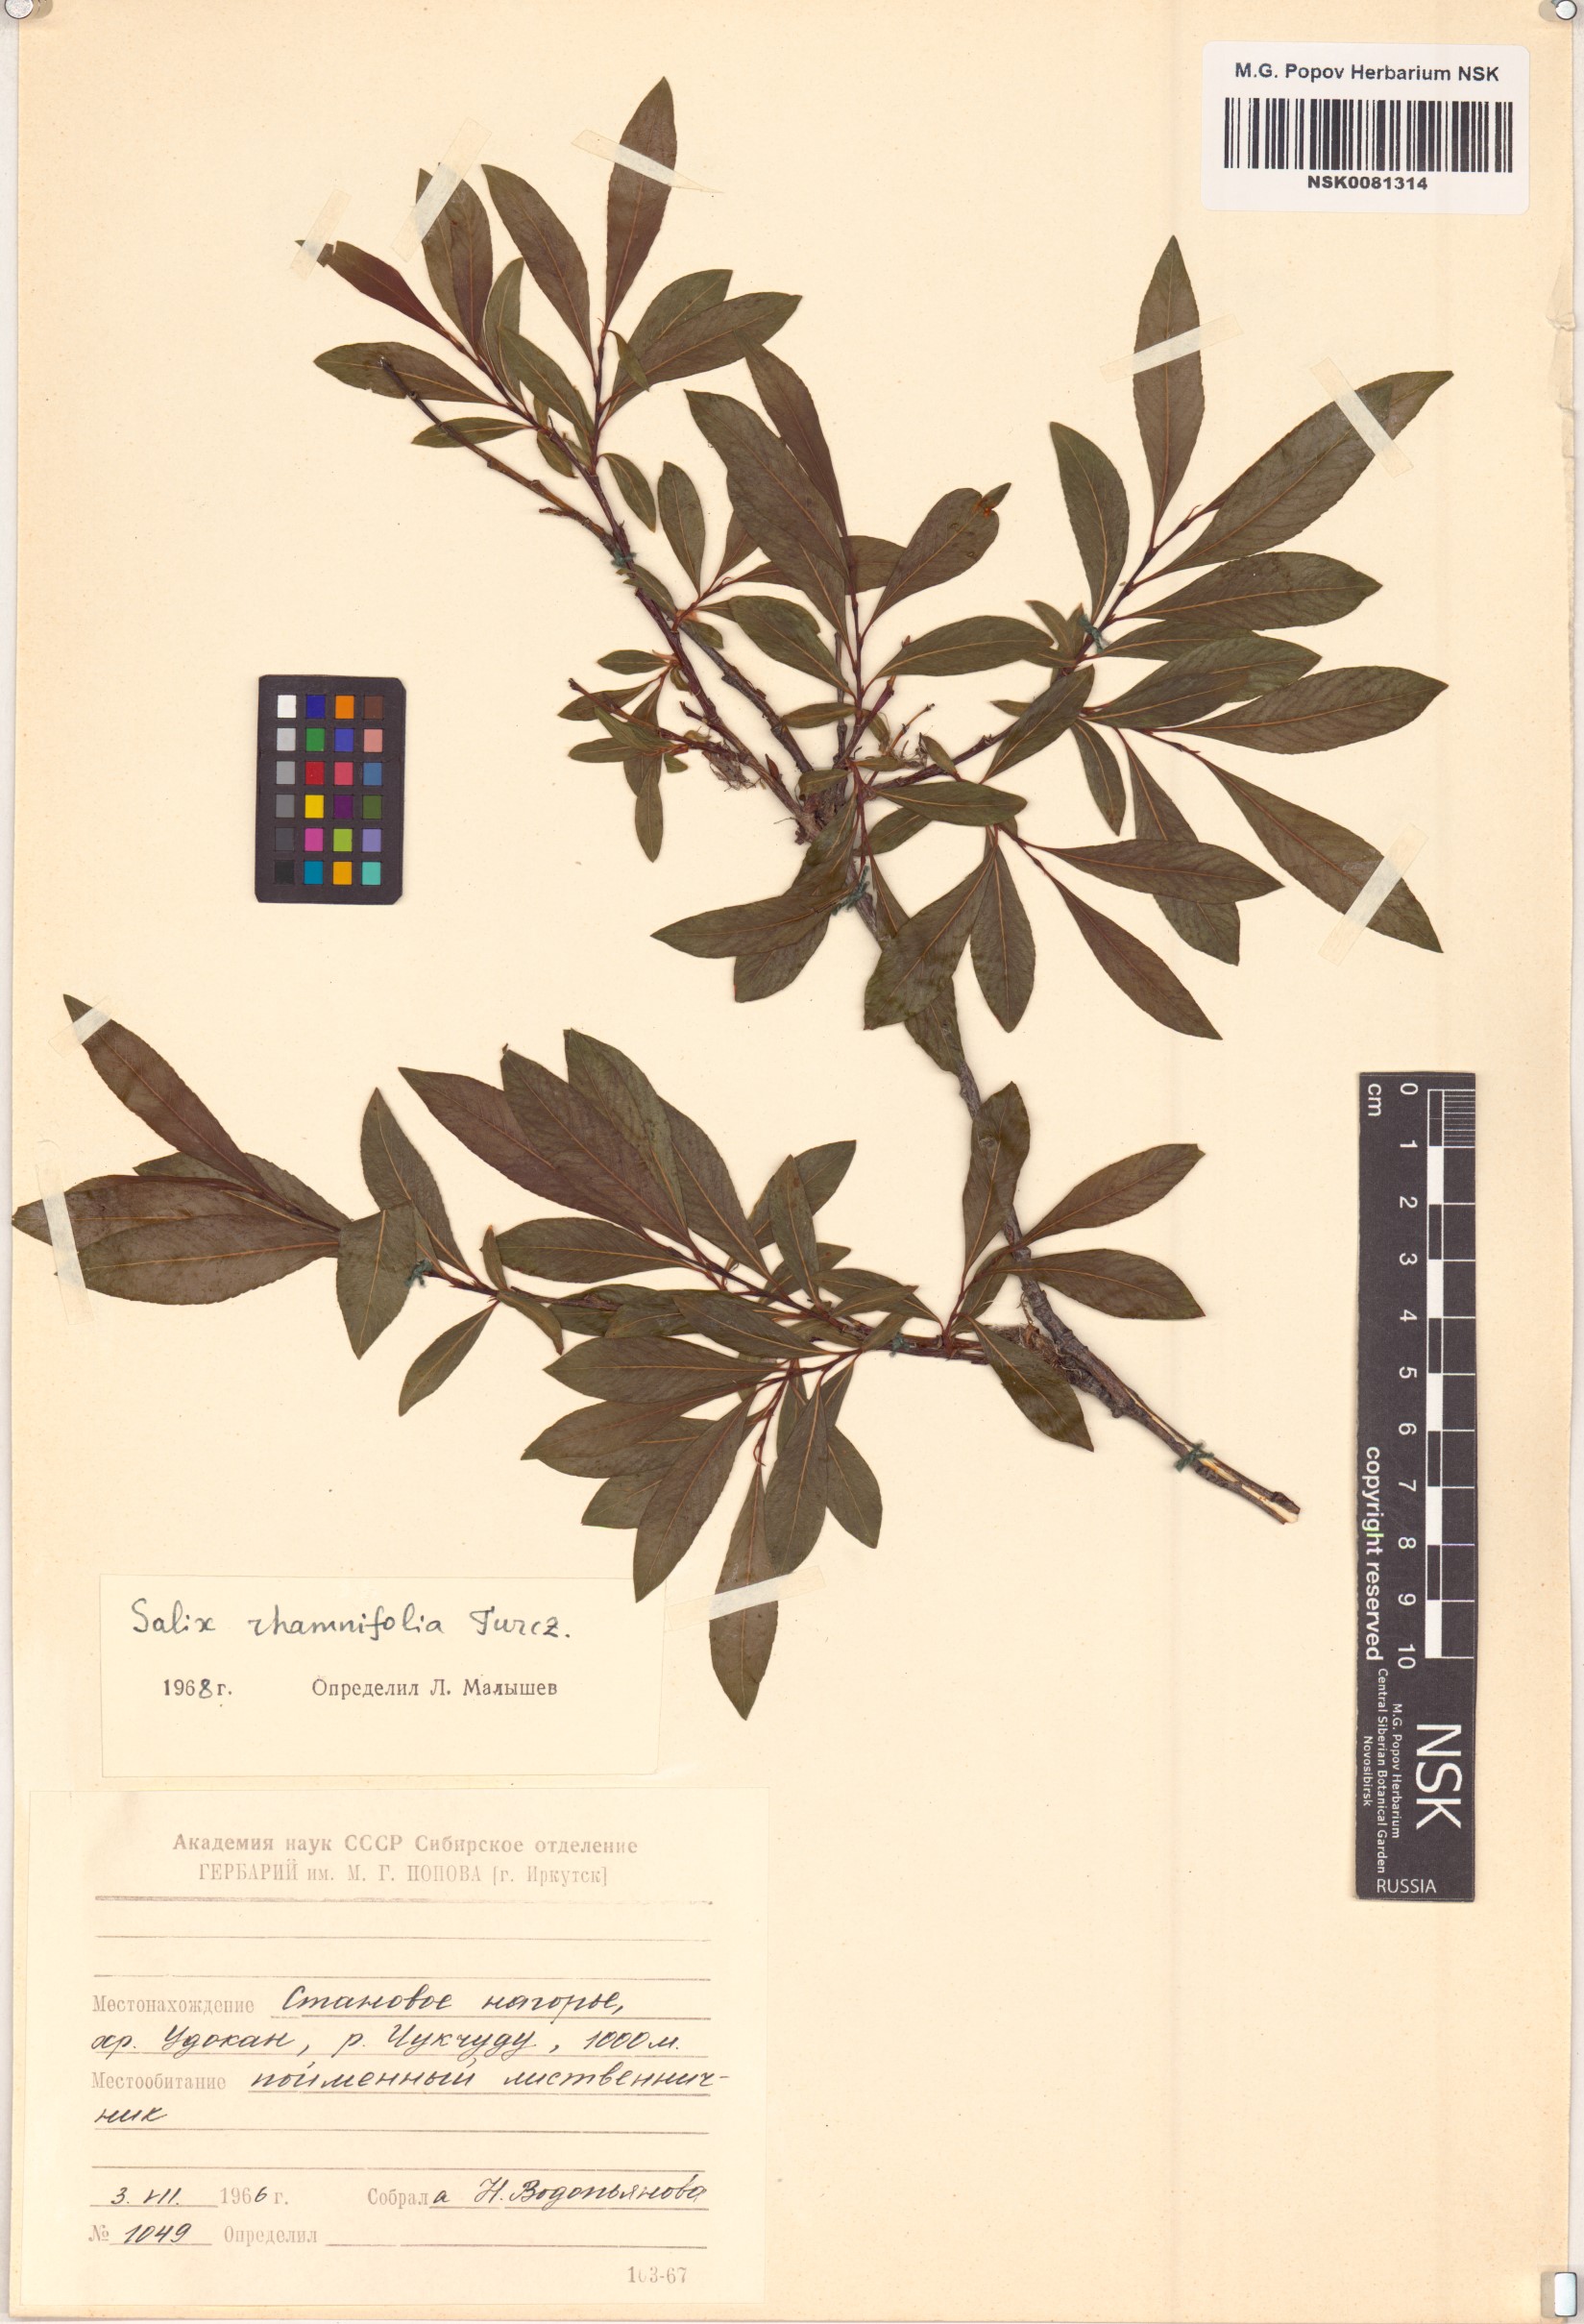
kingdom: Plantae
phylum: Tracheophyta
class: Magnoliopsida
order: Malpighiales
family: Salicaceae
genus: Salix
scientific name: Salix rhamnifolia
